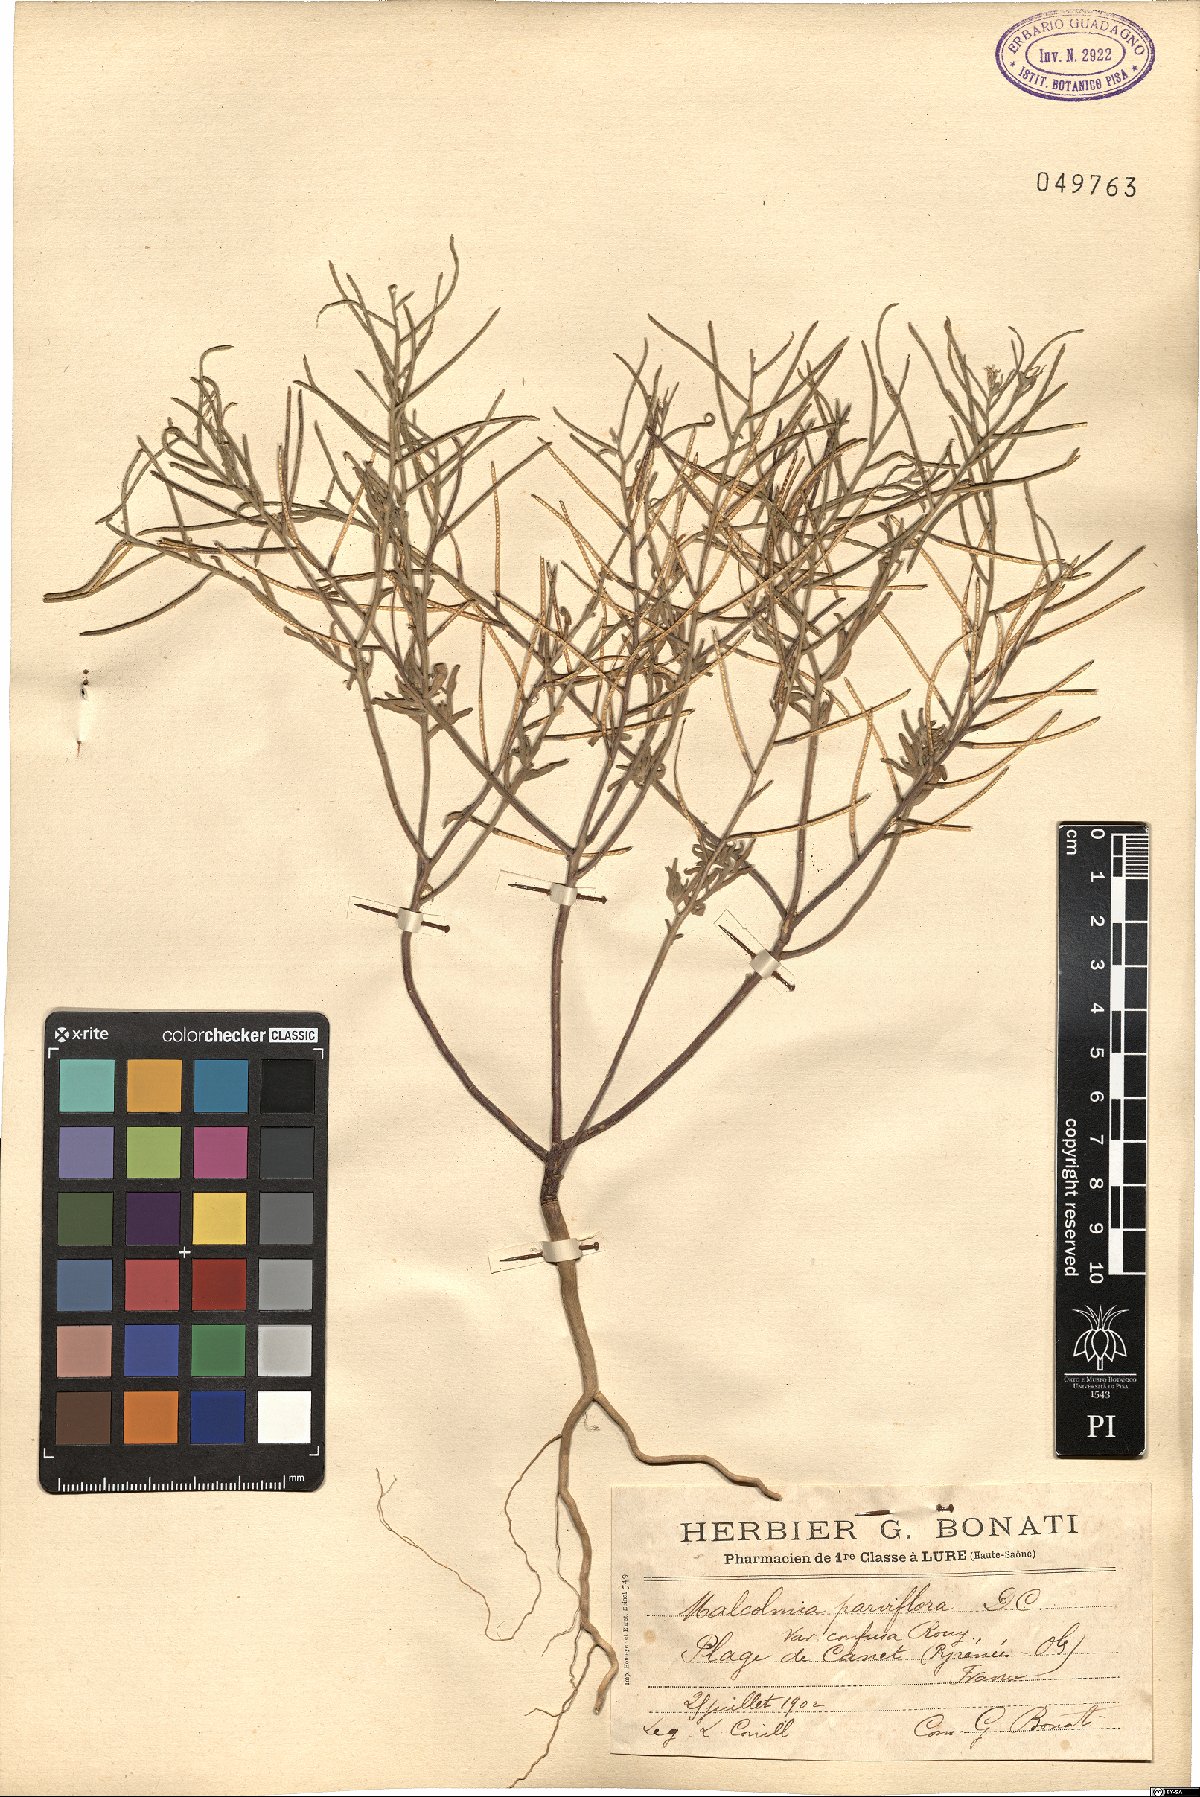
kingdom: Plantae
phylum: Tracheophyta
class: Magnoliopsida
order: Brassicales
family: Brassicaceae
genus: Marcuskochia
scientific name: Marcuskochia ramosissima
